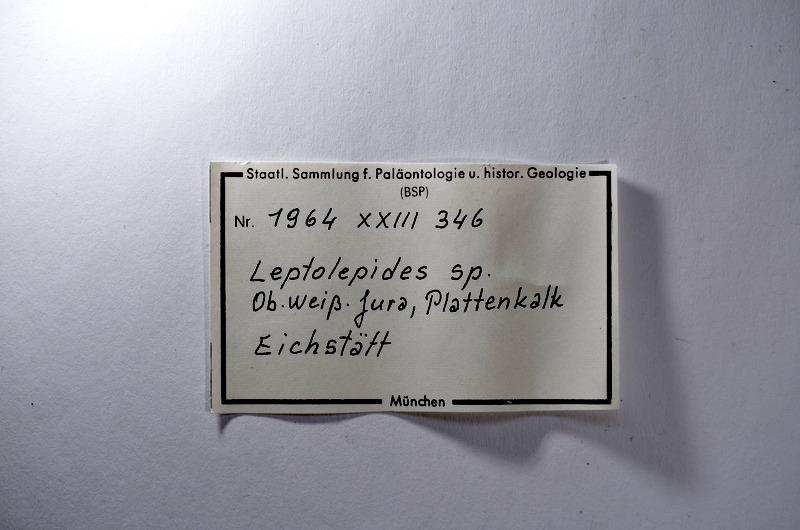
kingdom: Animalia
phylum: Chordata
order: Salmoniformes
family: Orthogonikleithridae
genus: Leptolepides
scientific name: Leptolepides
